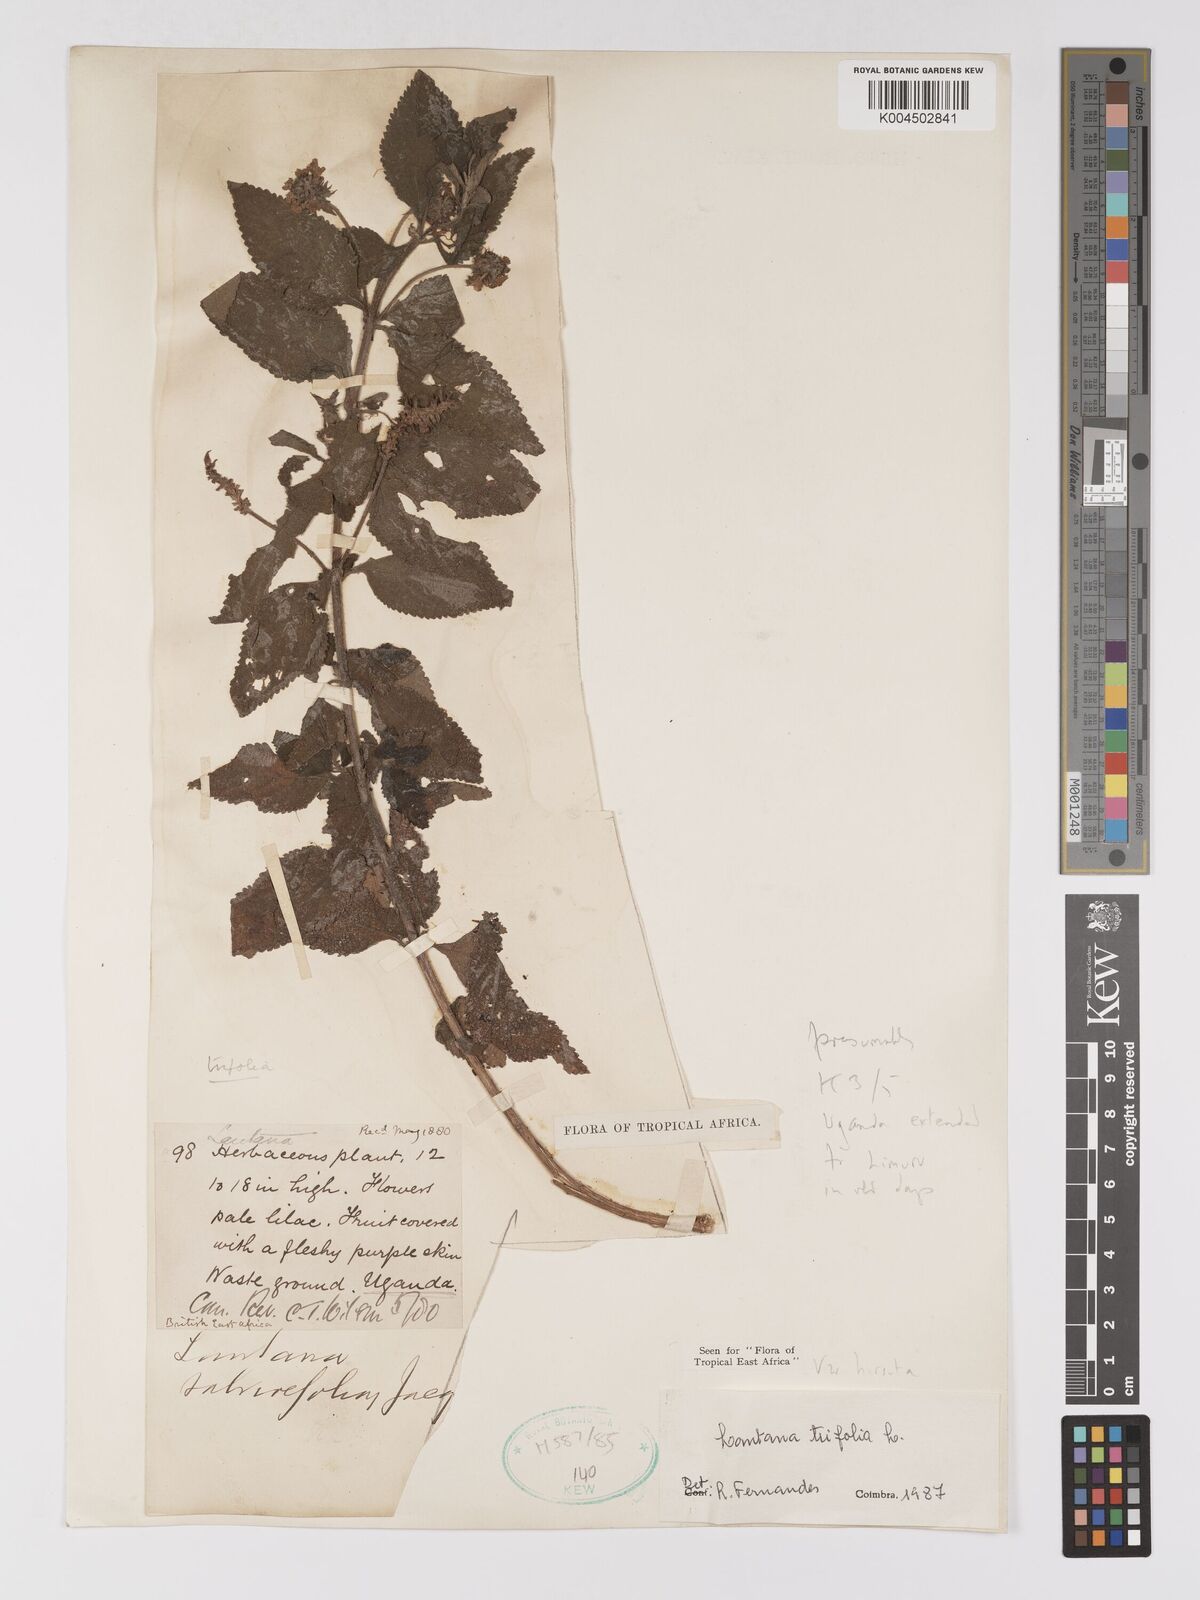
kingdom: Plantae
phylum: Tracheophyta
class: Magnoliopsida
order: Lamiales
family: Verbenaceae
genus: Lantana
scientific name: Lantana trifolia
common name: Sweet-sage
